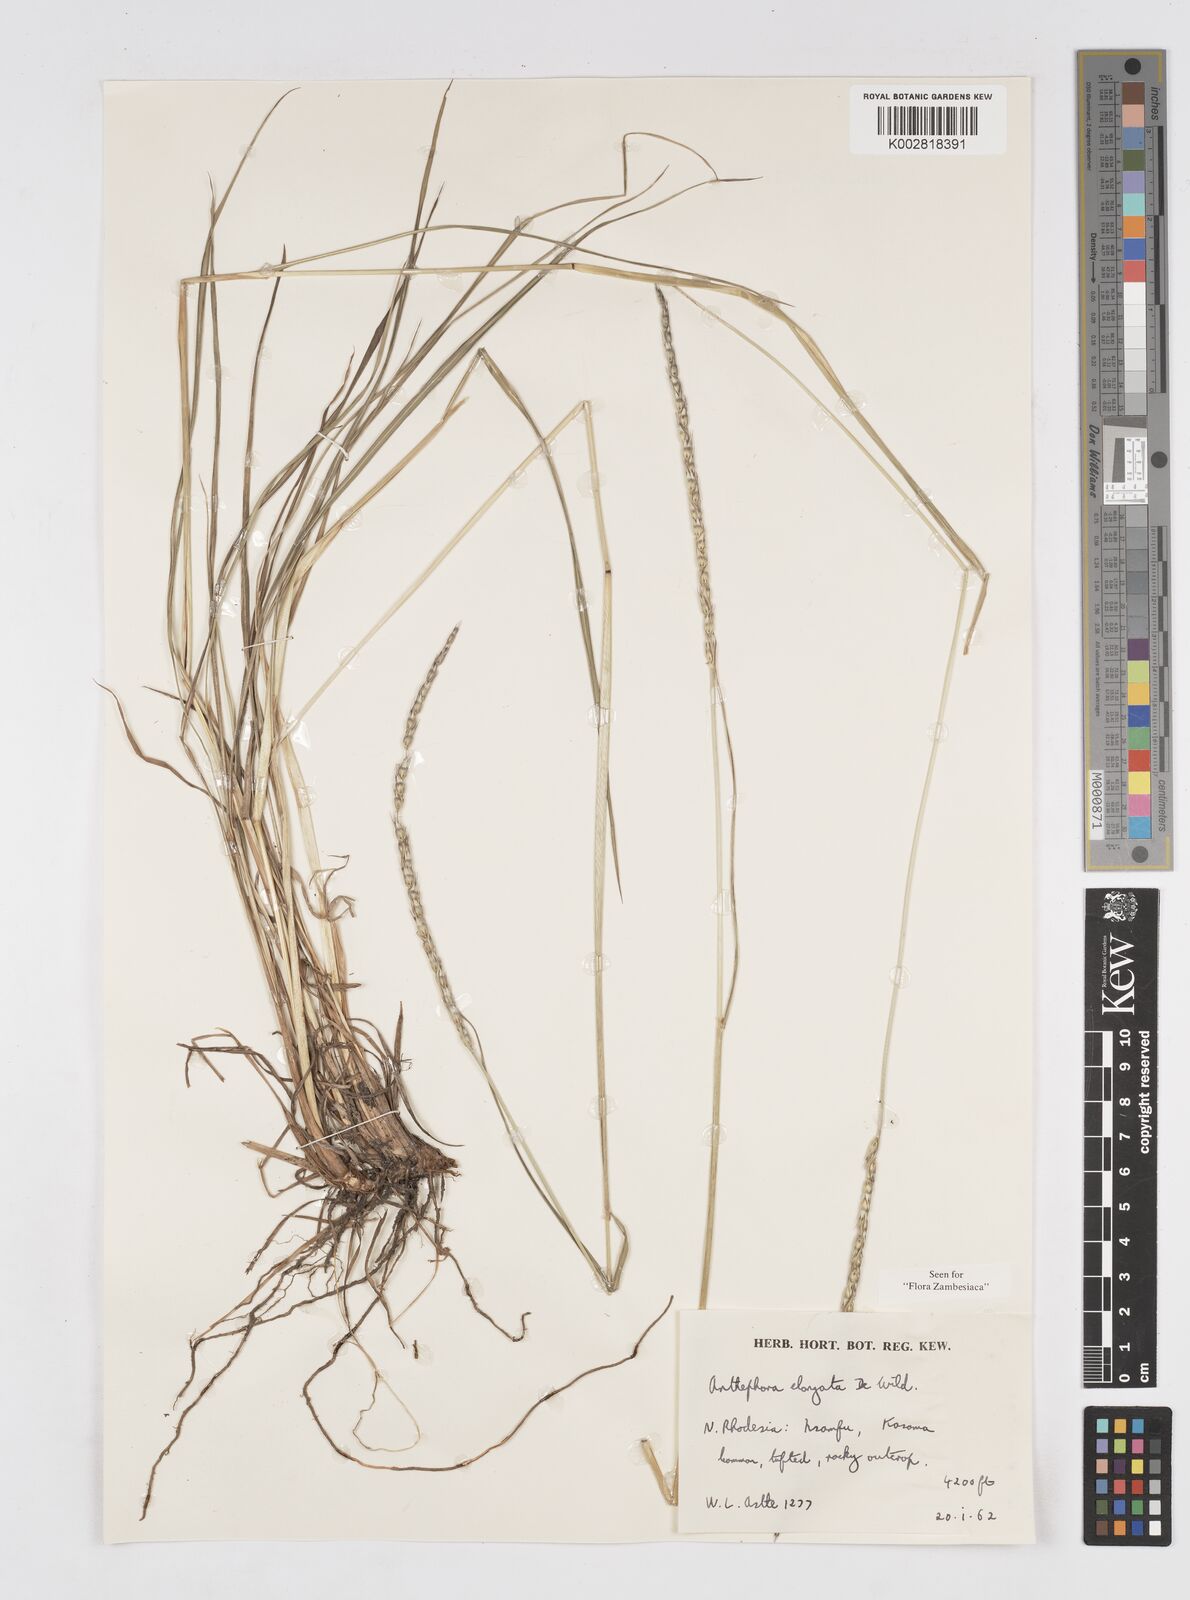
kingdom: Plantae
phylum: Tracheophyta
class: Liliopsida
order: Poales
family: Poaceae
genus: Anthephora
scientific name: Anthephora elongata
